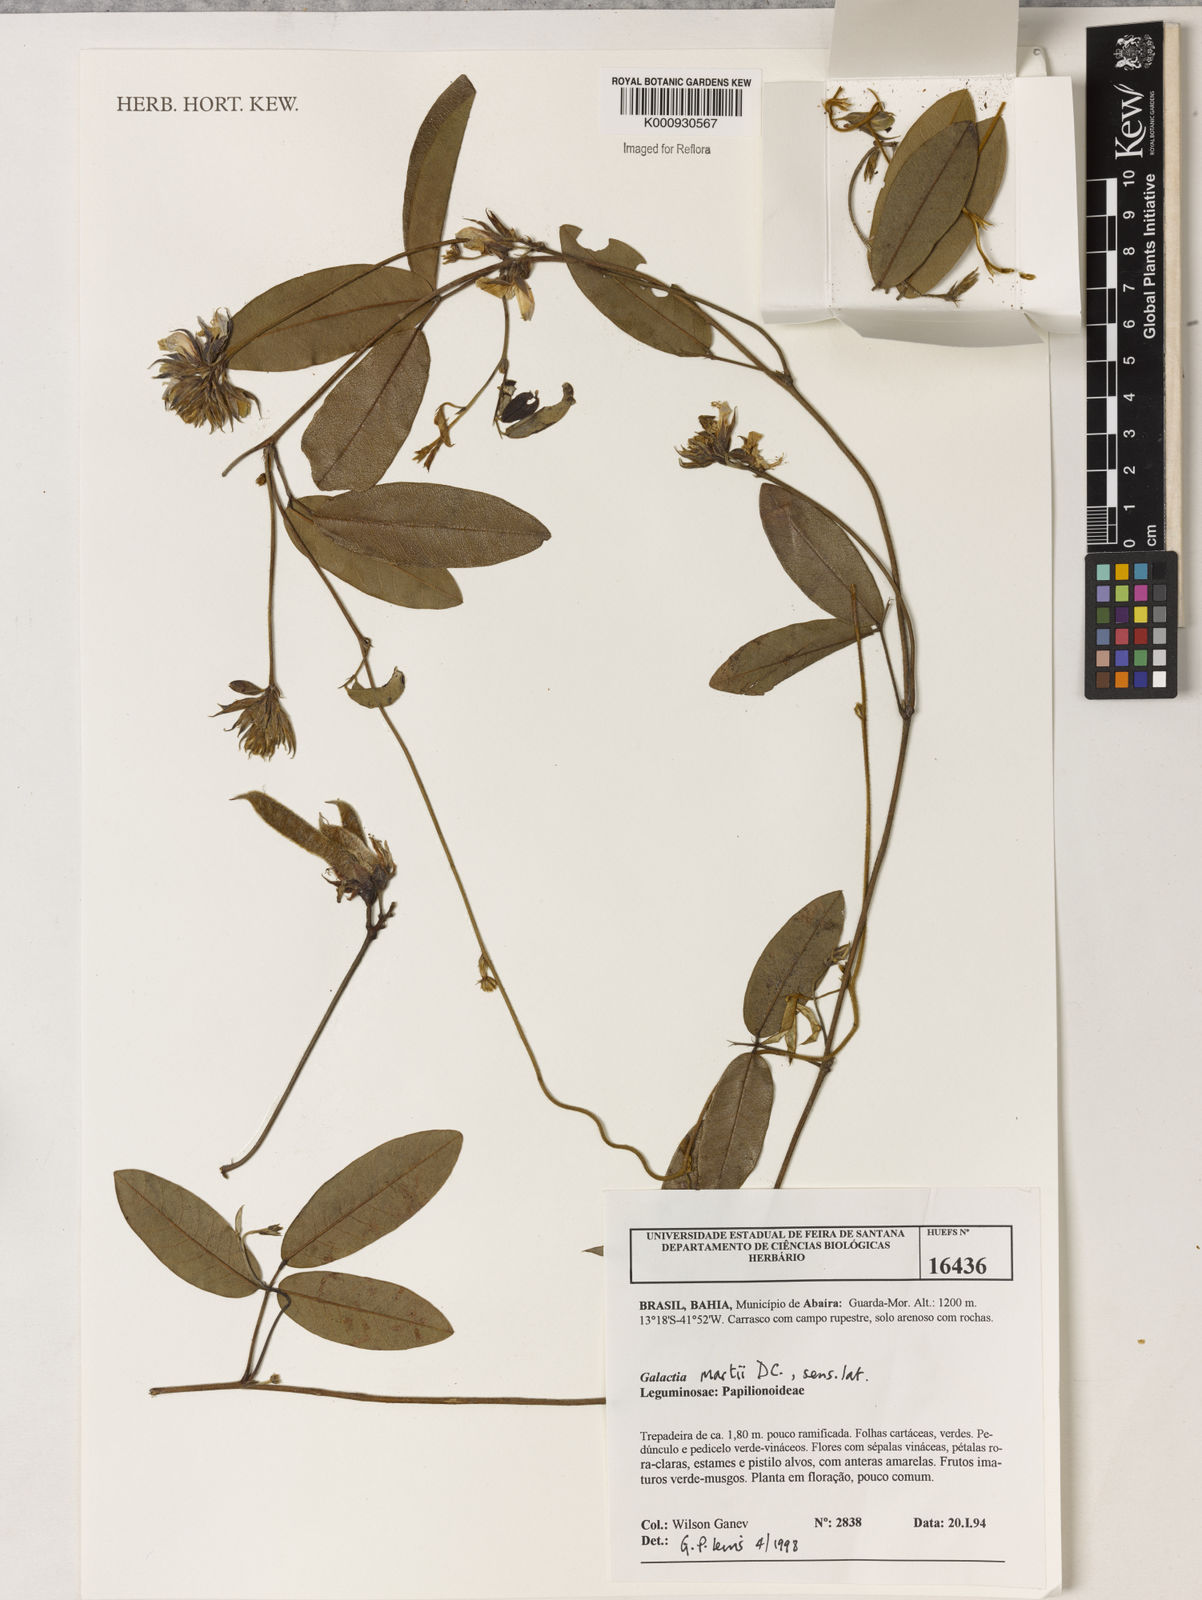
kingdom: Plantae
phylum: Tracheophyta
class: Magnoliopsida
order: Fabales
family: Fabaceae
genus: Betencourtia
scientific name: Betencourtia martii
